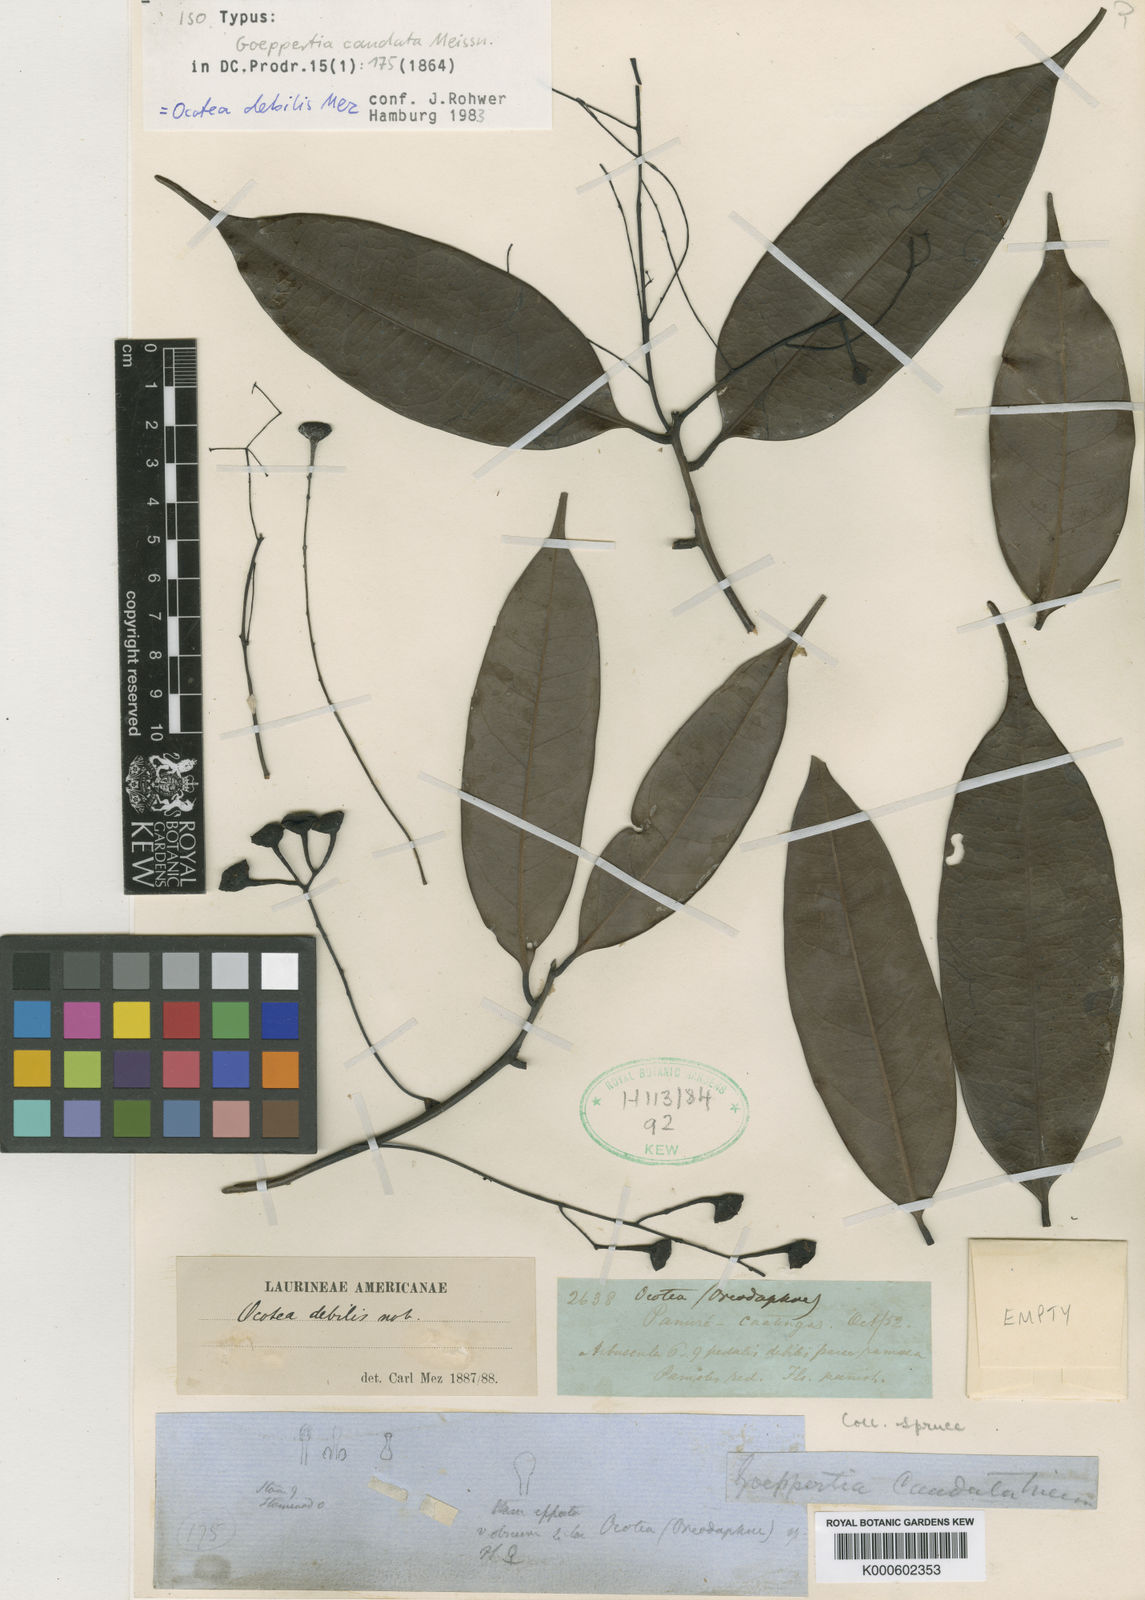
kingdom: Plantae
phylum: Tracheophyta
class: Magnoliopsida
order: Laurales
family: Lauraceae
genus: Ocotea
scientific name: Ocotea debilis
